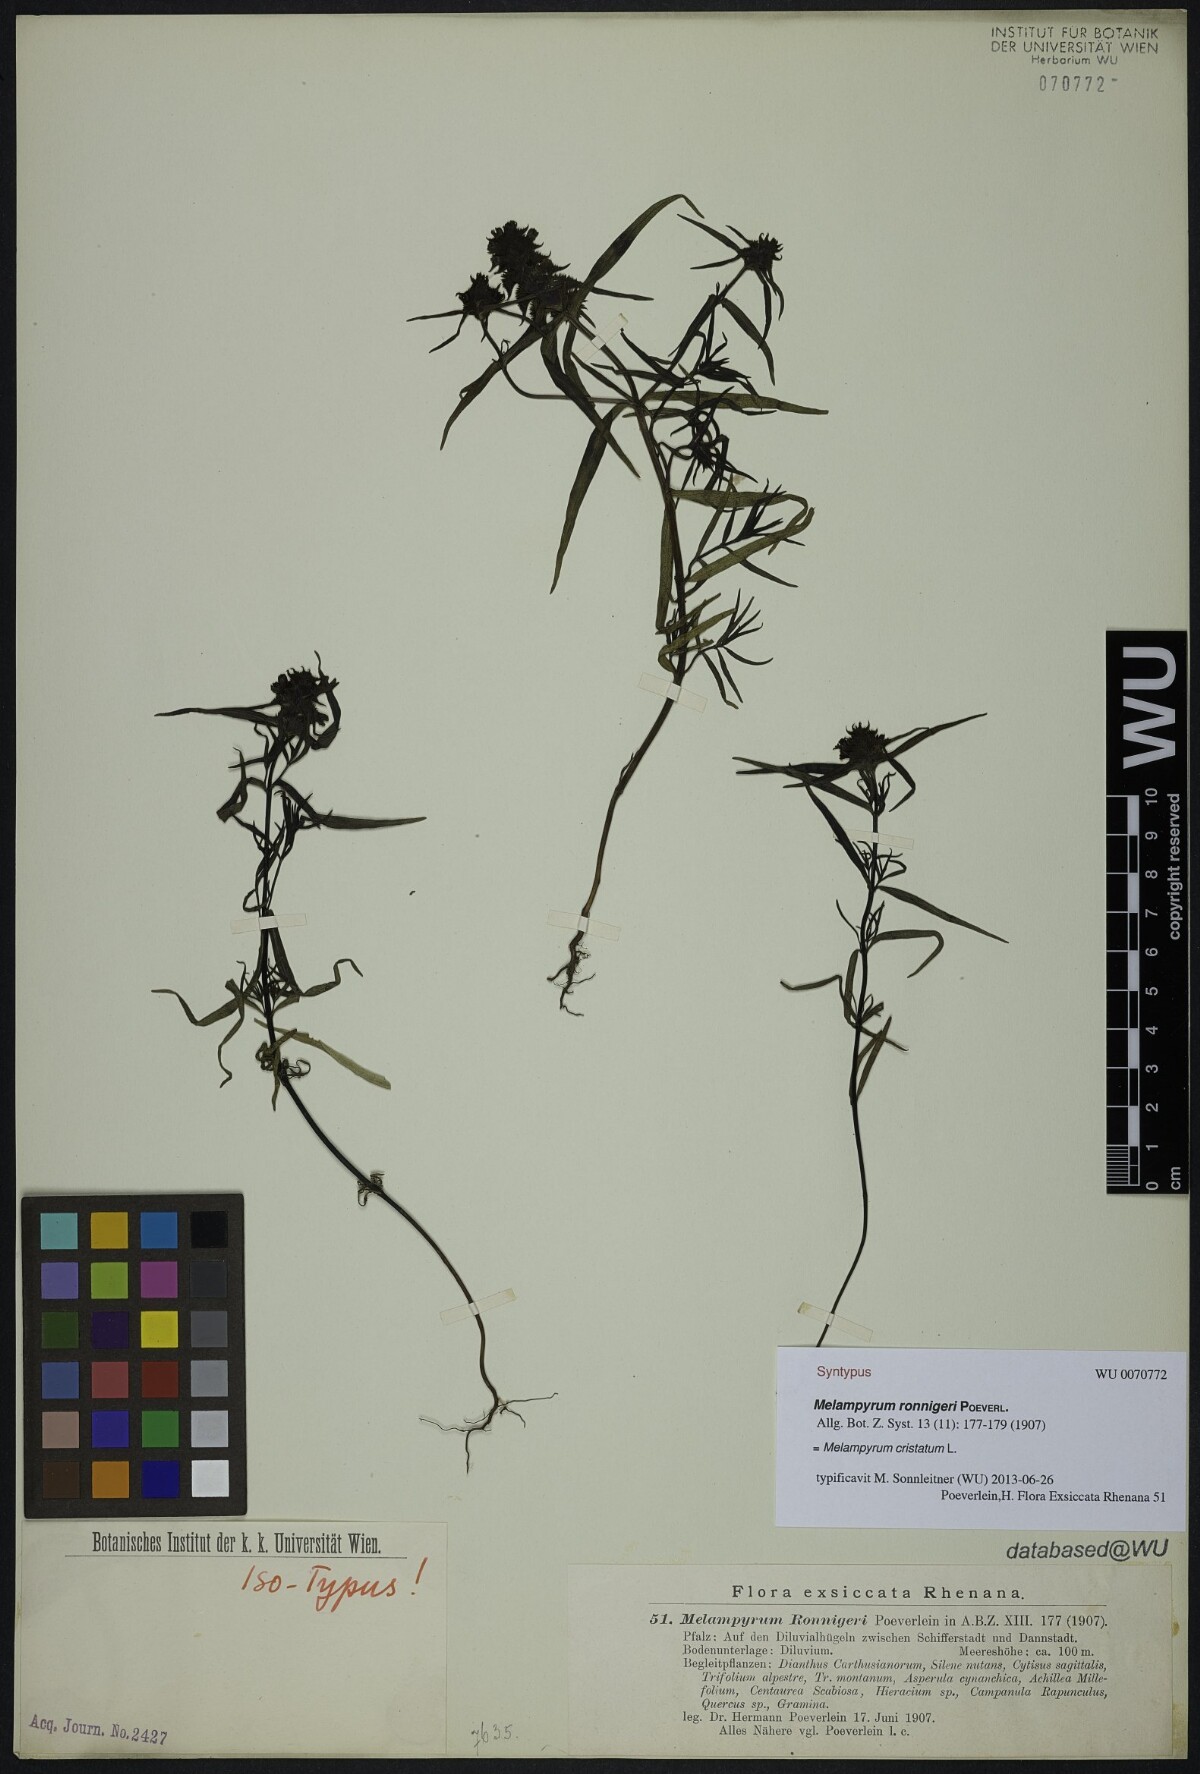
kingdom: Plantae
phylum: Tracheophyta
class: Magnoliopsida
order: Lamiales
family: Orobanchaceae
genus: Melampyrum
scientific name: Melampyrum cristatum
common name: Crested cow-wheat
